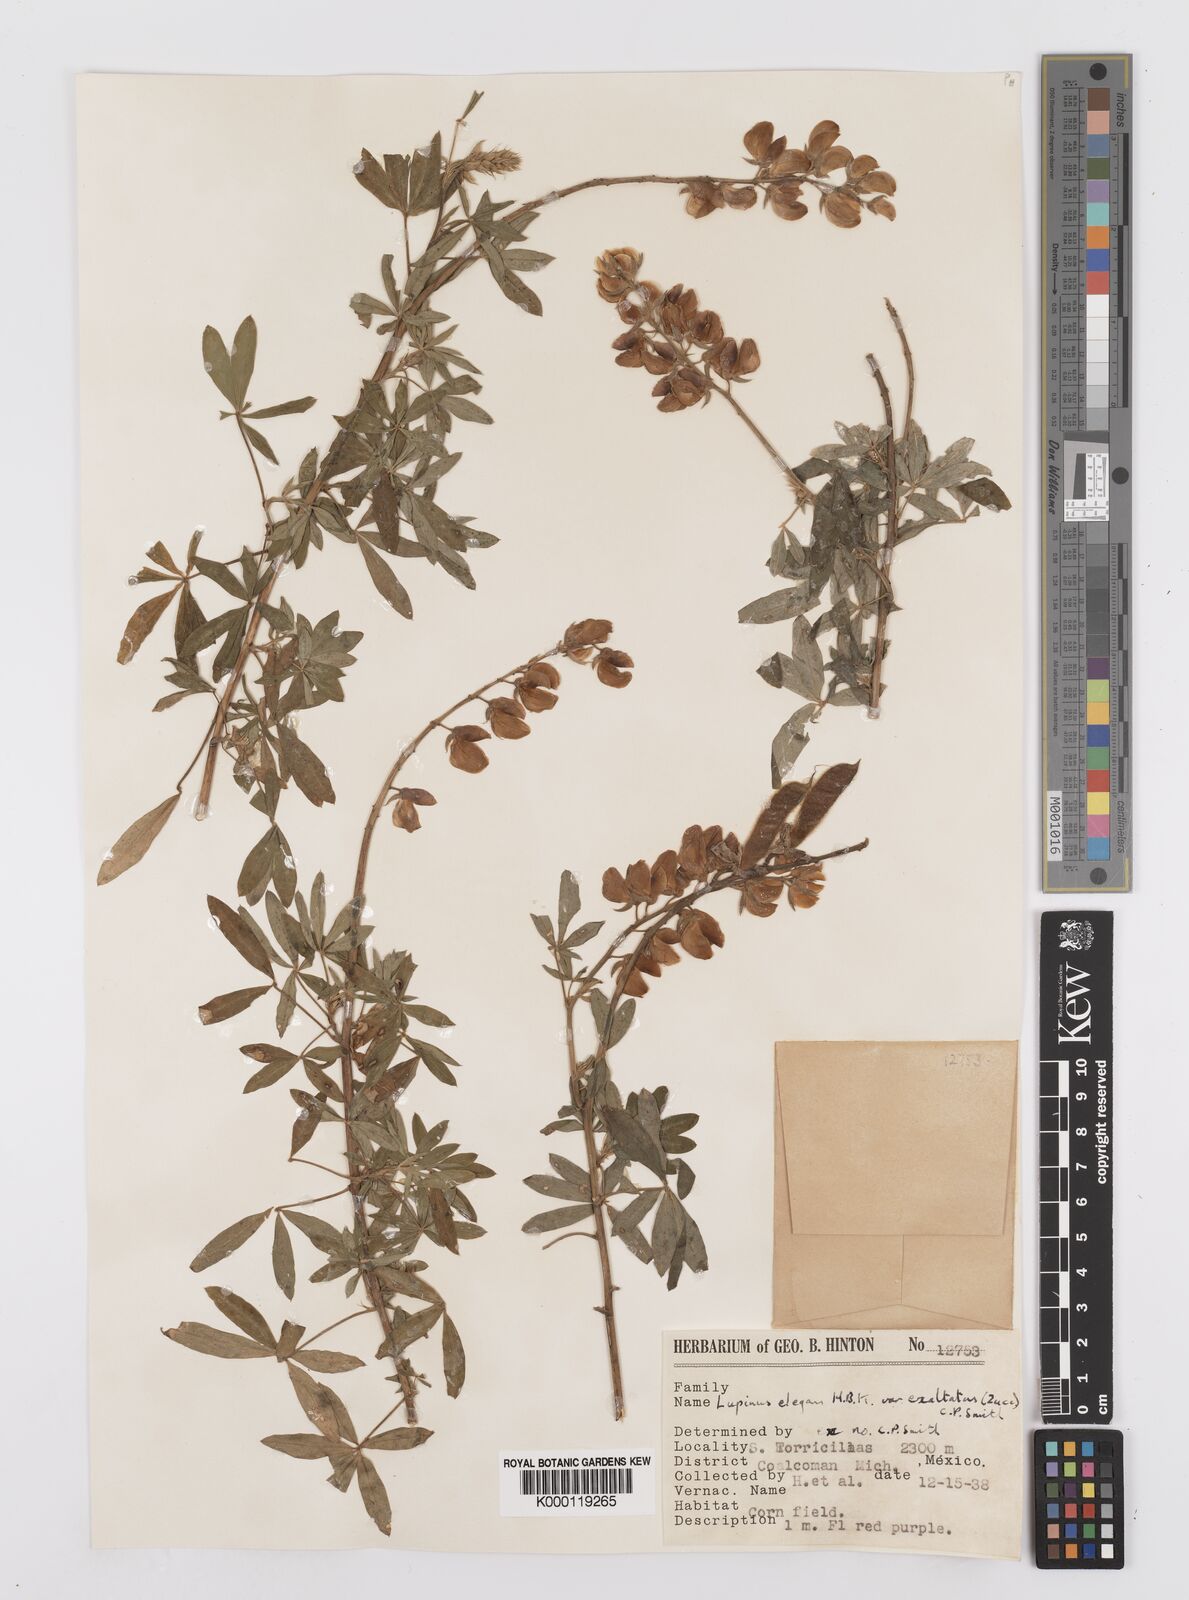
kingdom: Plantae
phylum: Tracheophyta
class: Magnoliopsida
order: Fabales
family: Fabaceae
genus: Lupinus
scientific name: Lupinus elegans
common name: Mexican lupine
